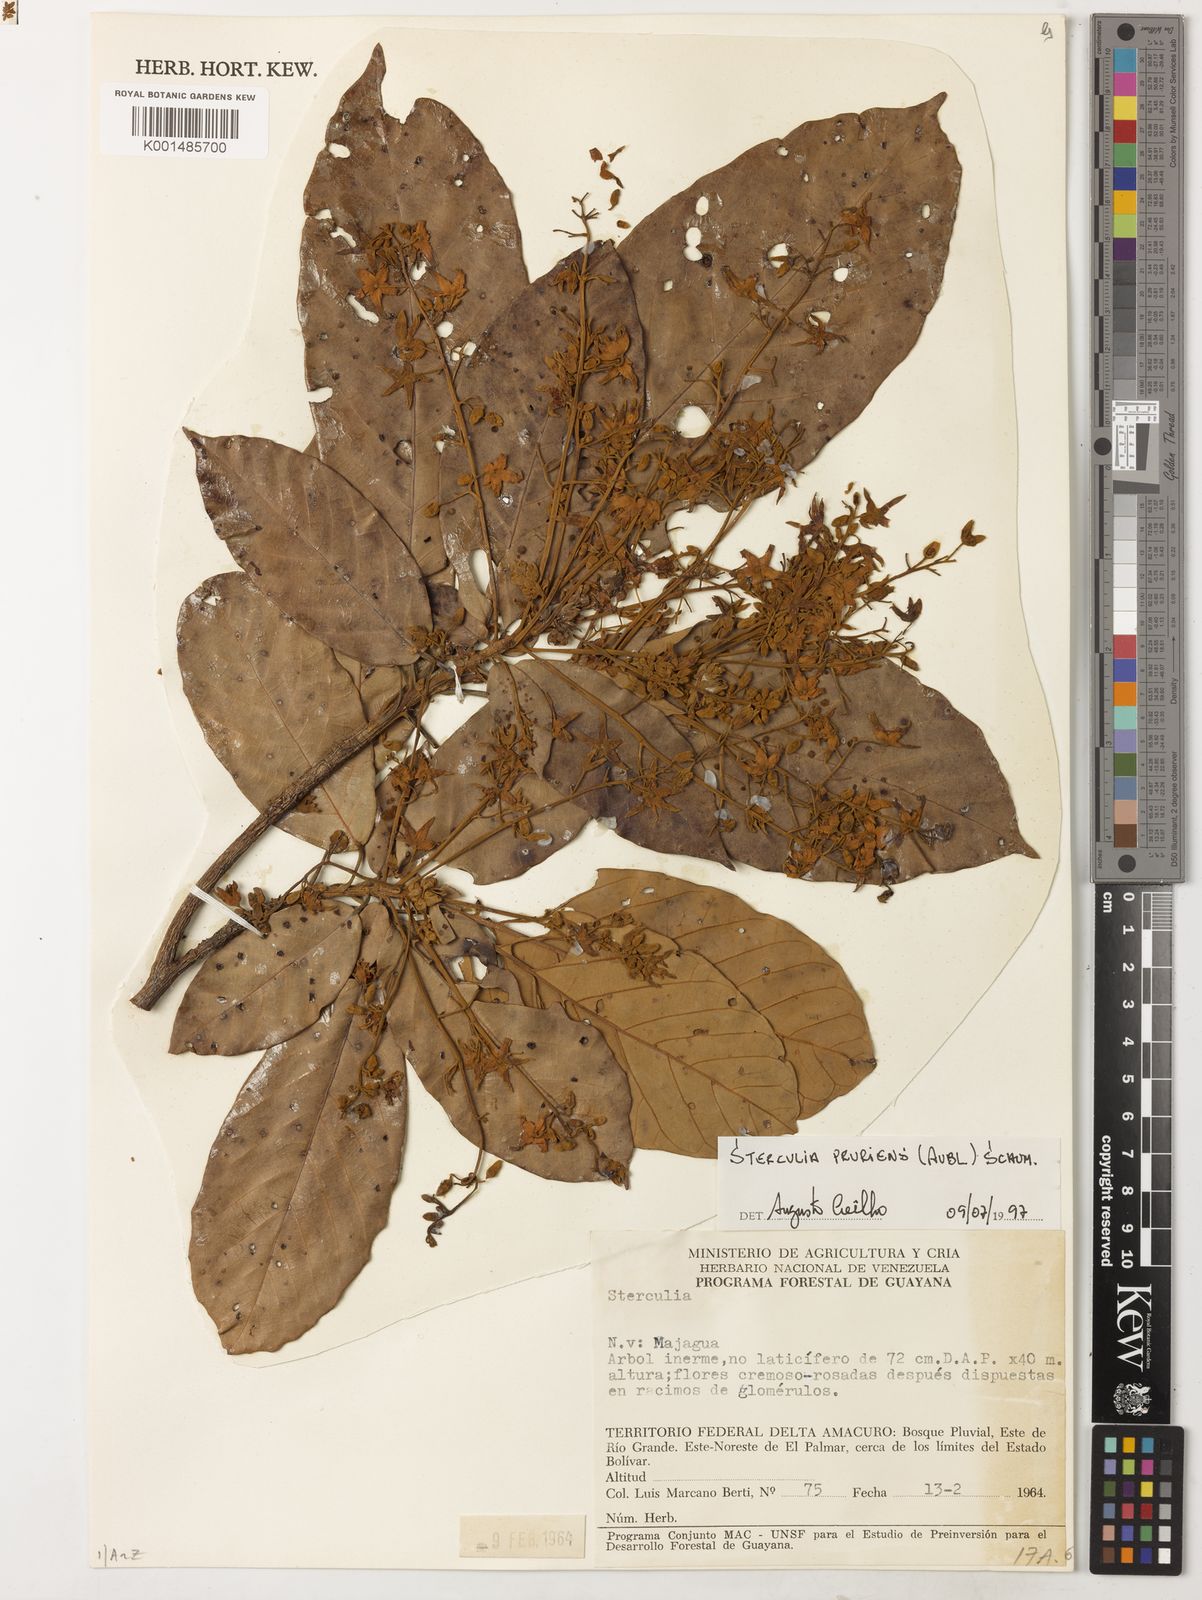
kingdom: Plantae
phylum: Tracheophyta
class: Magnoliopsida
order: Malvales
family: Malvaceae
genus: Sterculia
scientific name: Sterculia pruriens
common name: Grand mahot
